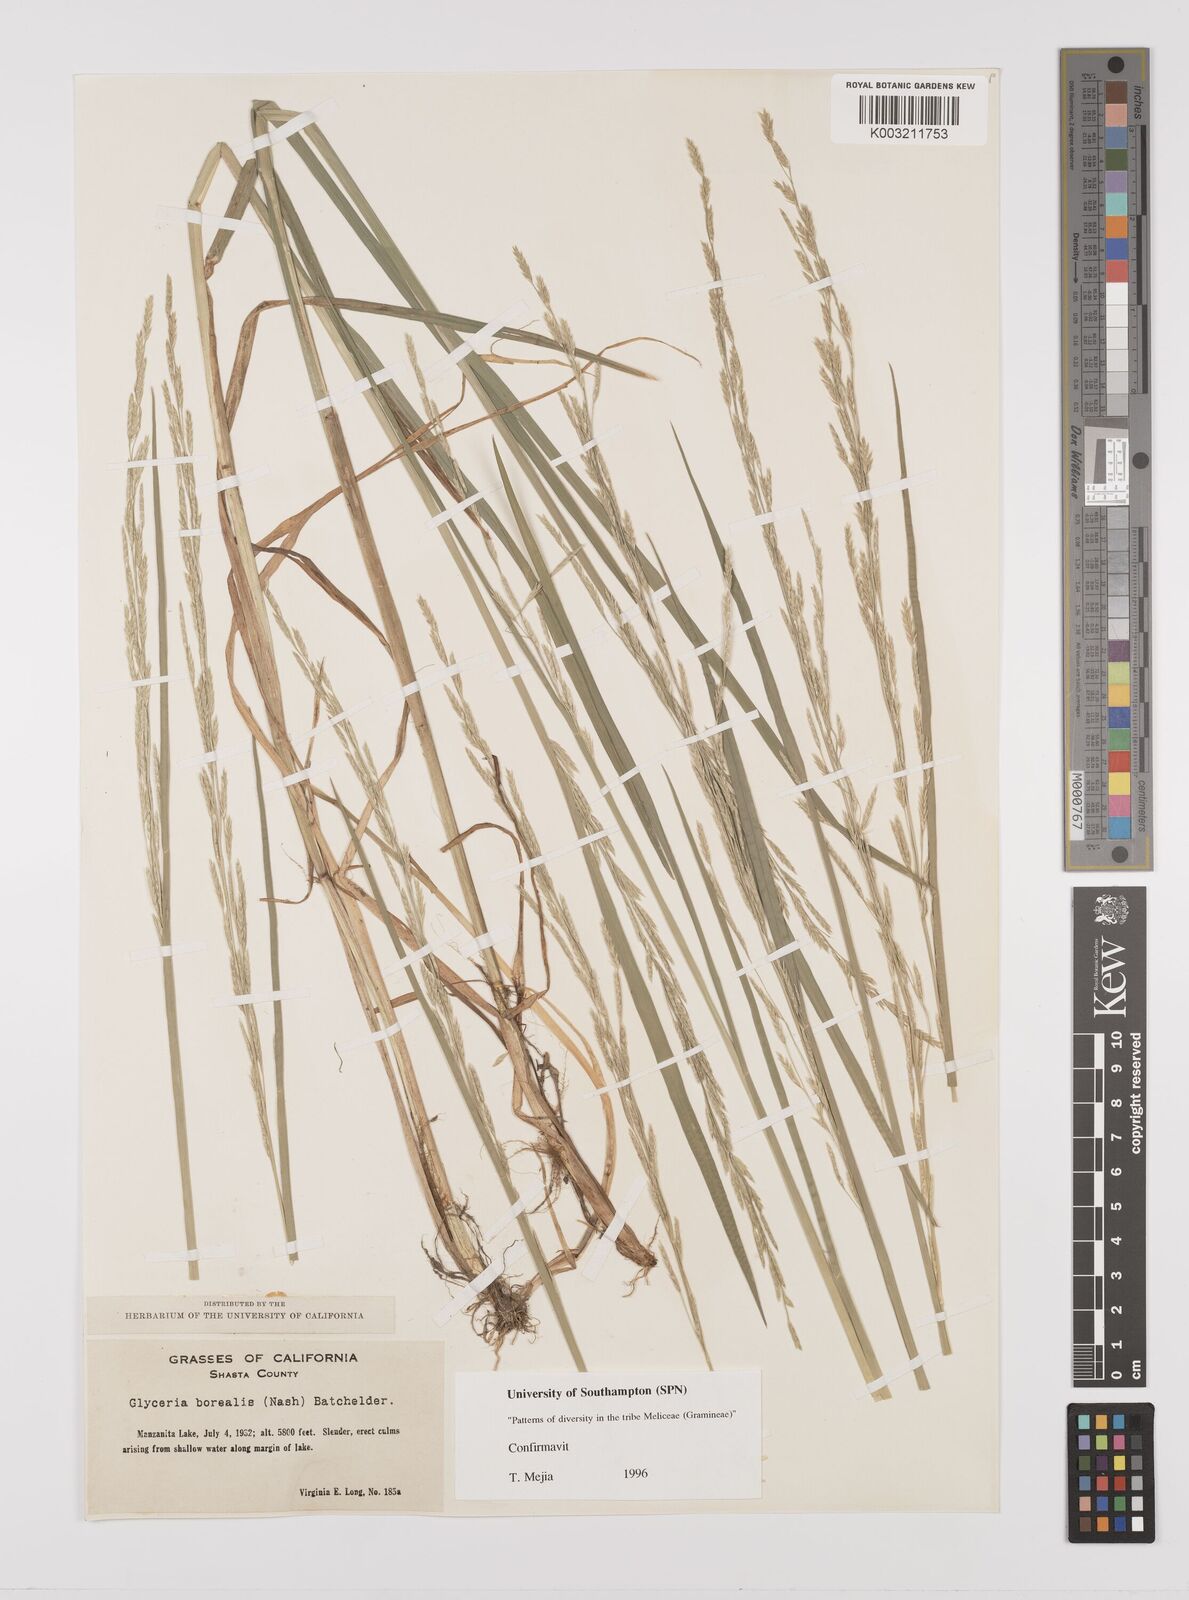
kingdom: Plantae
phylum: Tracheophyta
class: Liliopsida
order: Poales
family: Poaceae
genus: Glyceria
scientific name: Glyceria borealis
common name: Boreal glyceria
